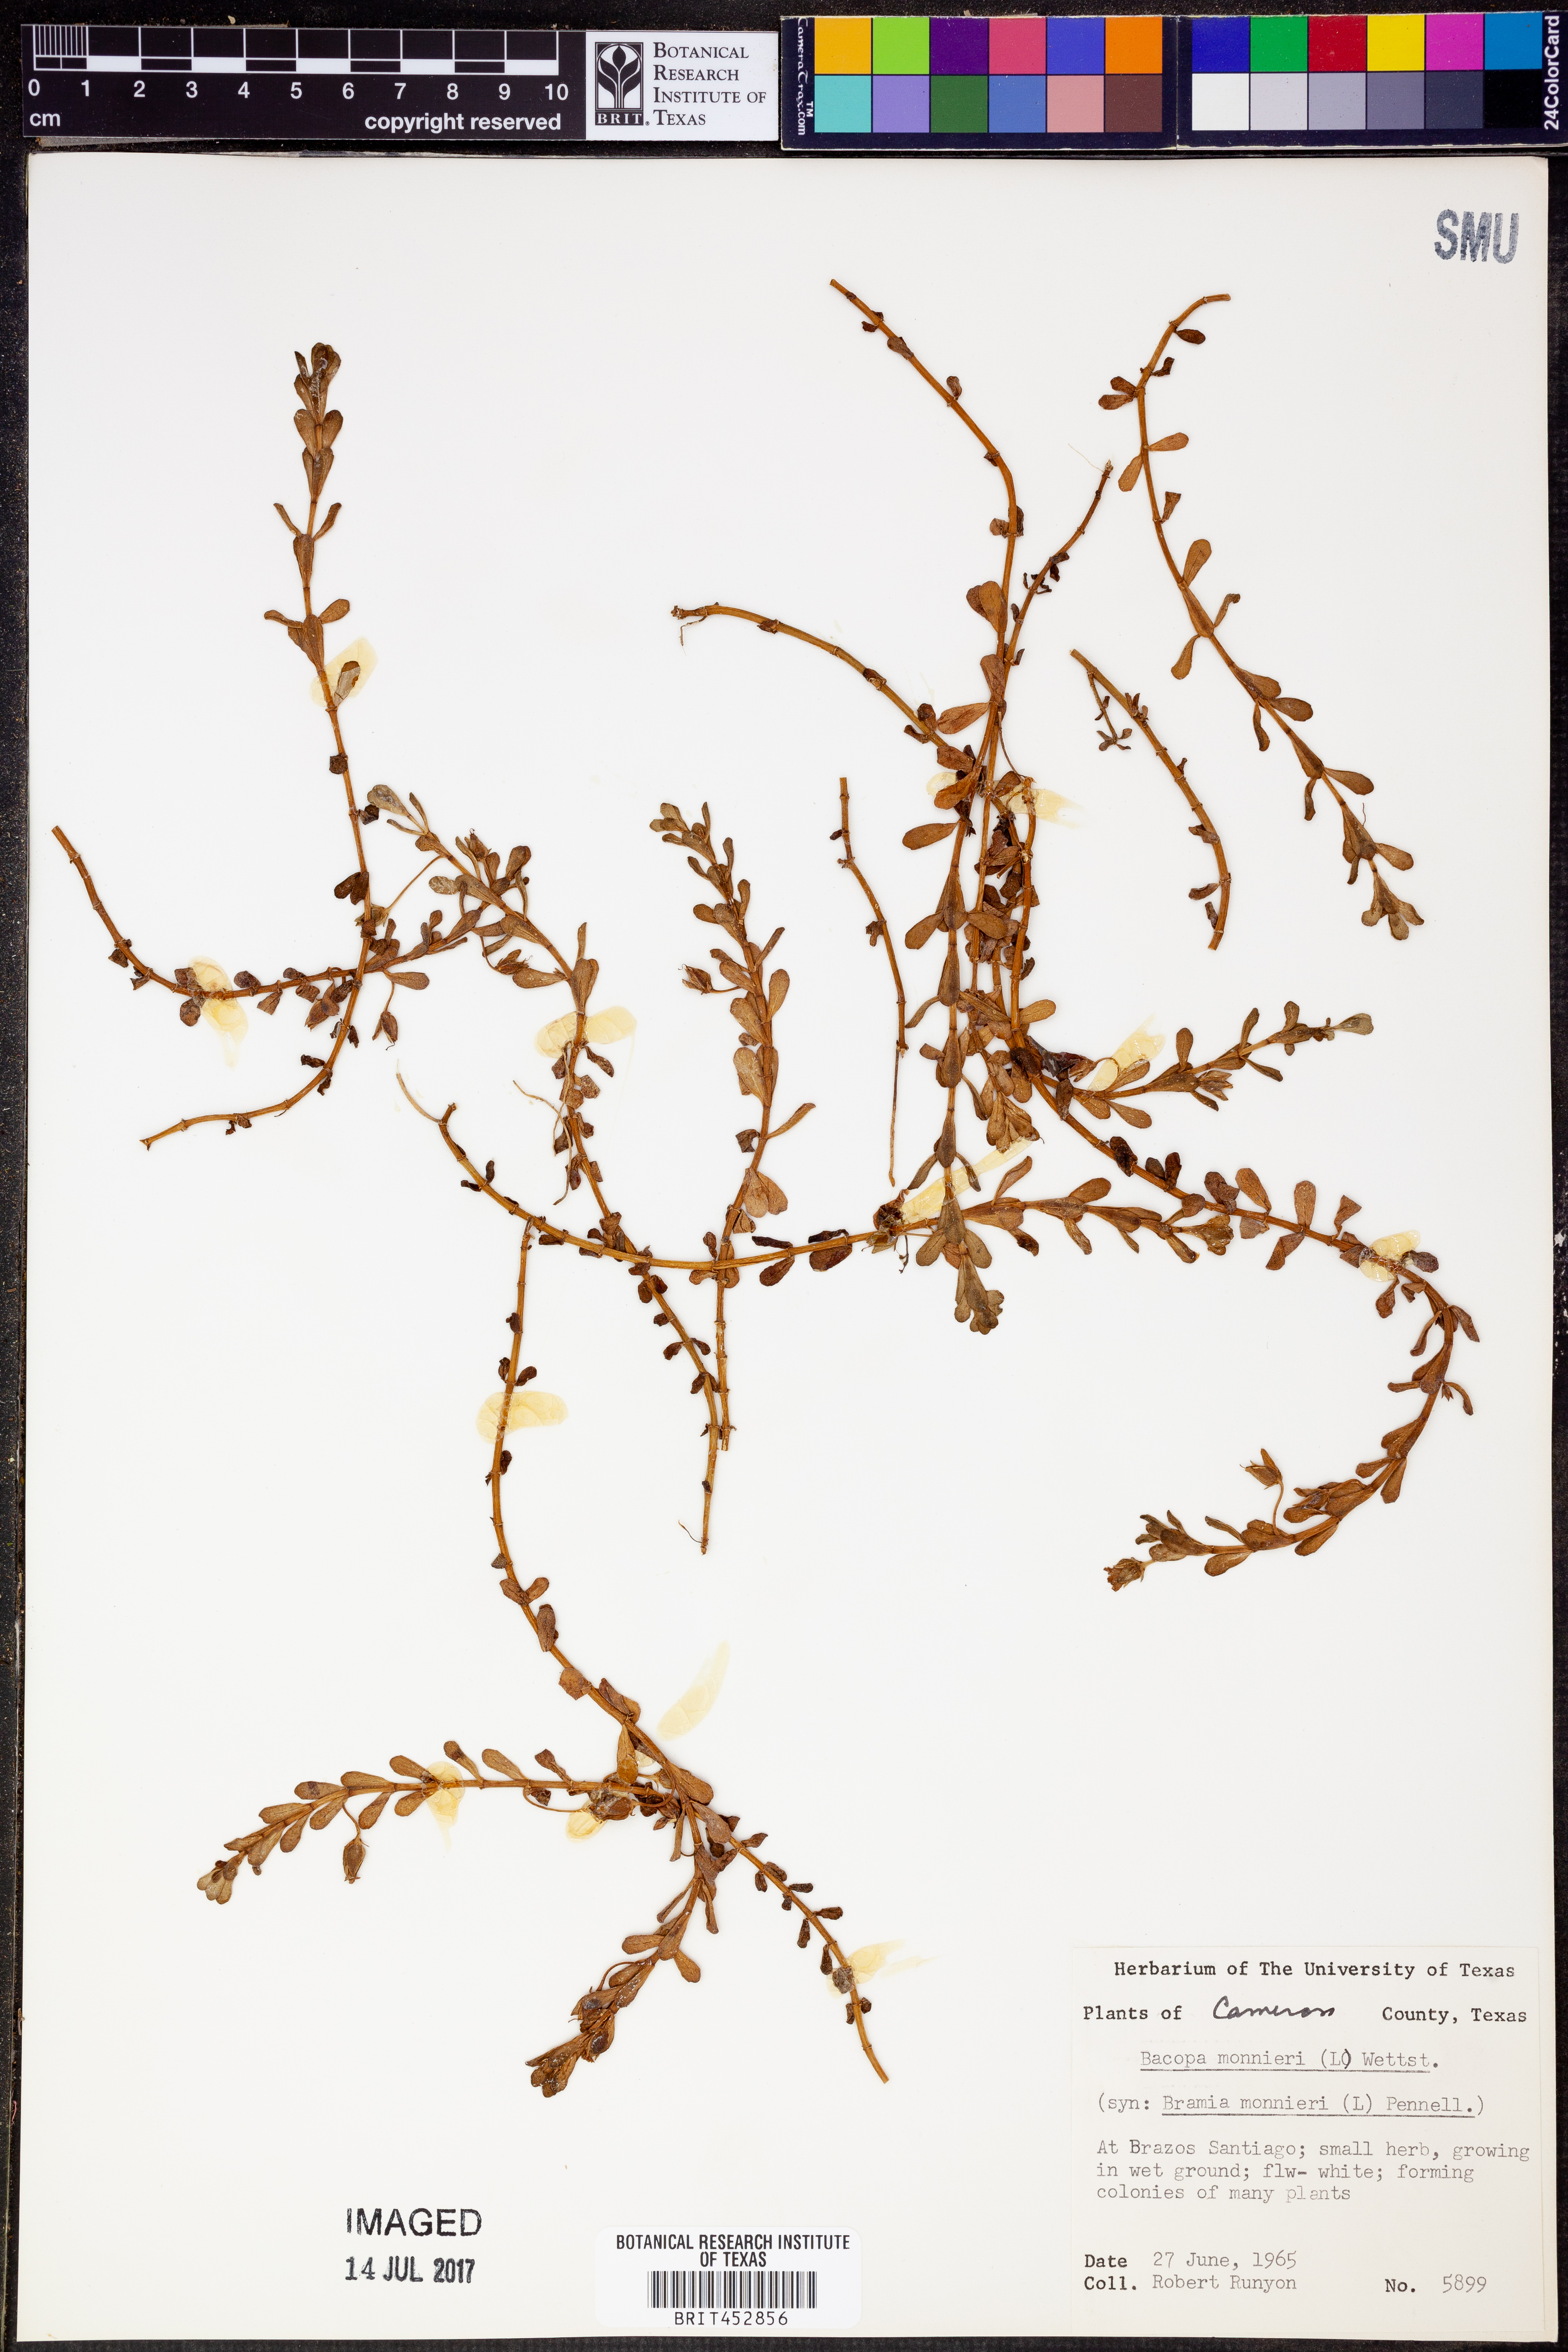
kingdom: Plantae
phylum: Tracheophyta
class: Magnoliopsida
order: Lamiales
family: Plantaginaceae
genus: Bacopa
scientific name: Bacopa monnieri
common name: Indian-pennywort
